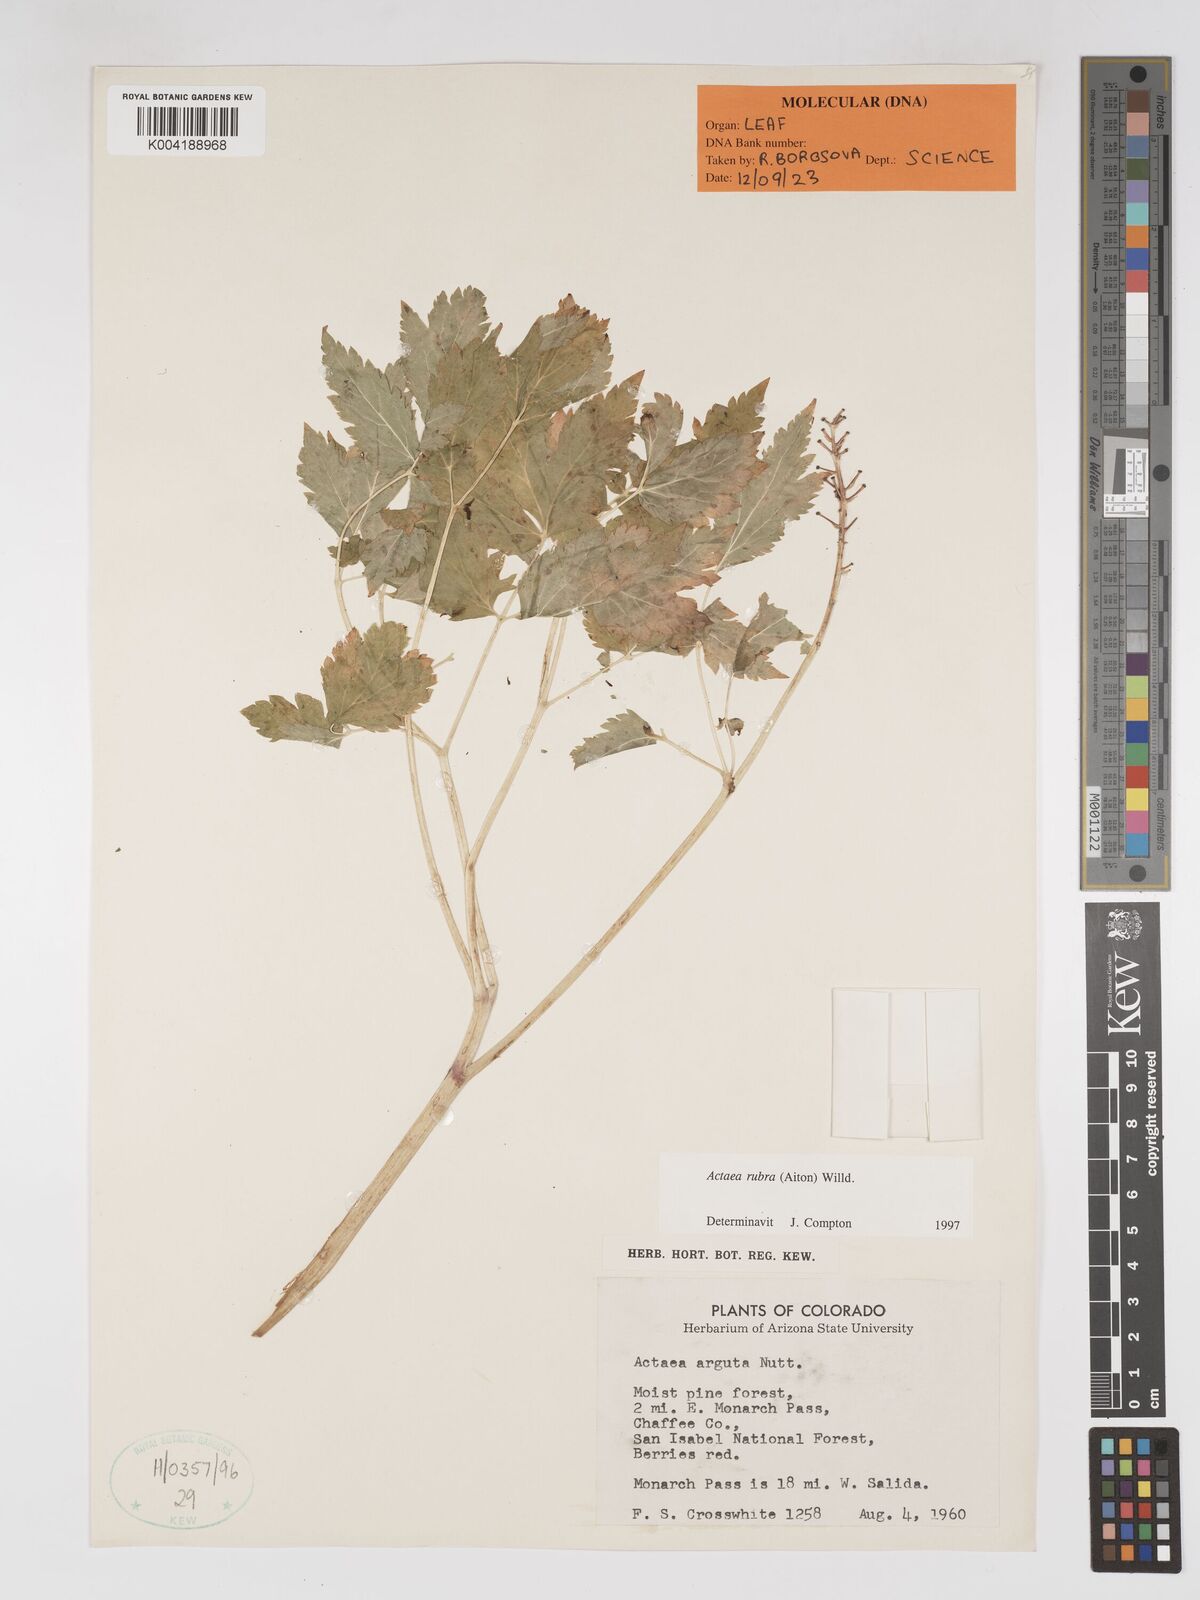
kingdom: Plantae
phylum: Tracheophyta
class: Magnoliopsida
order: Ranunculales
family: Ranunculaceae
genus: Actaea
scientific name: Actaea rubra
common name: Red baneberry
